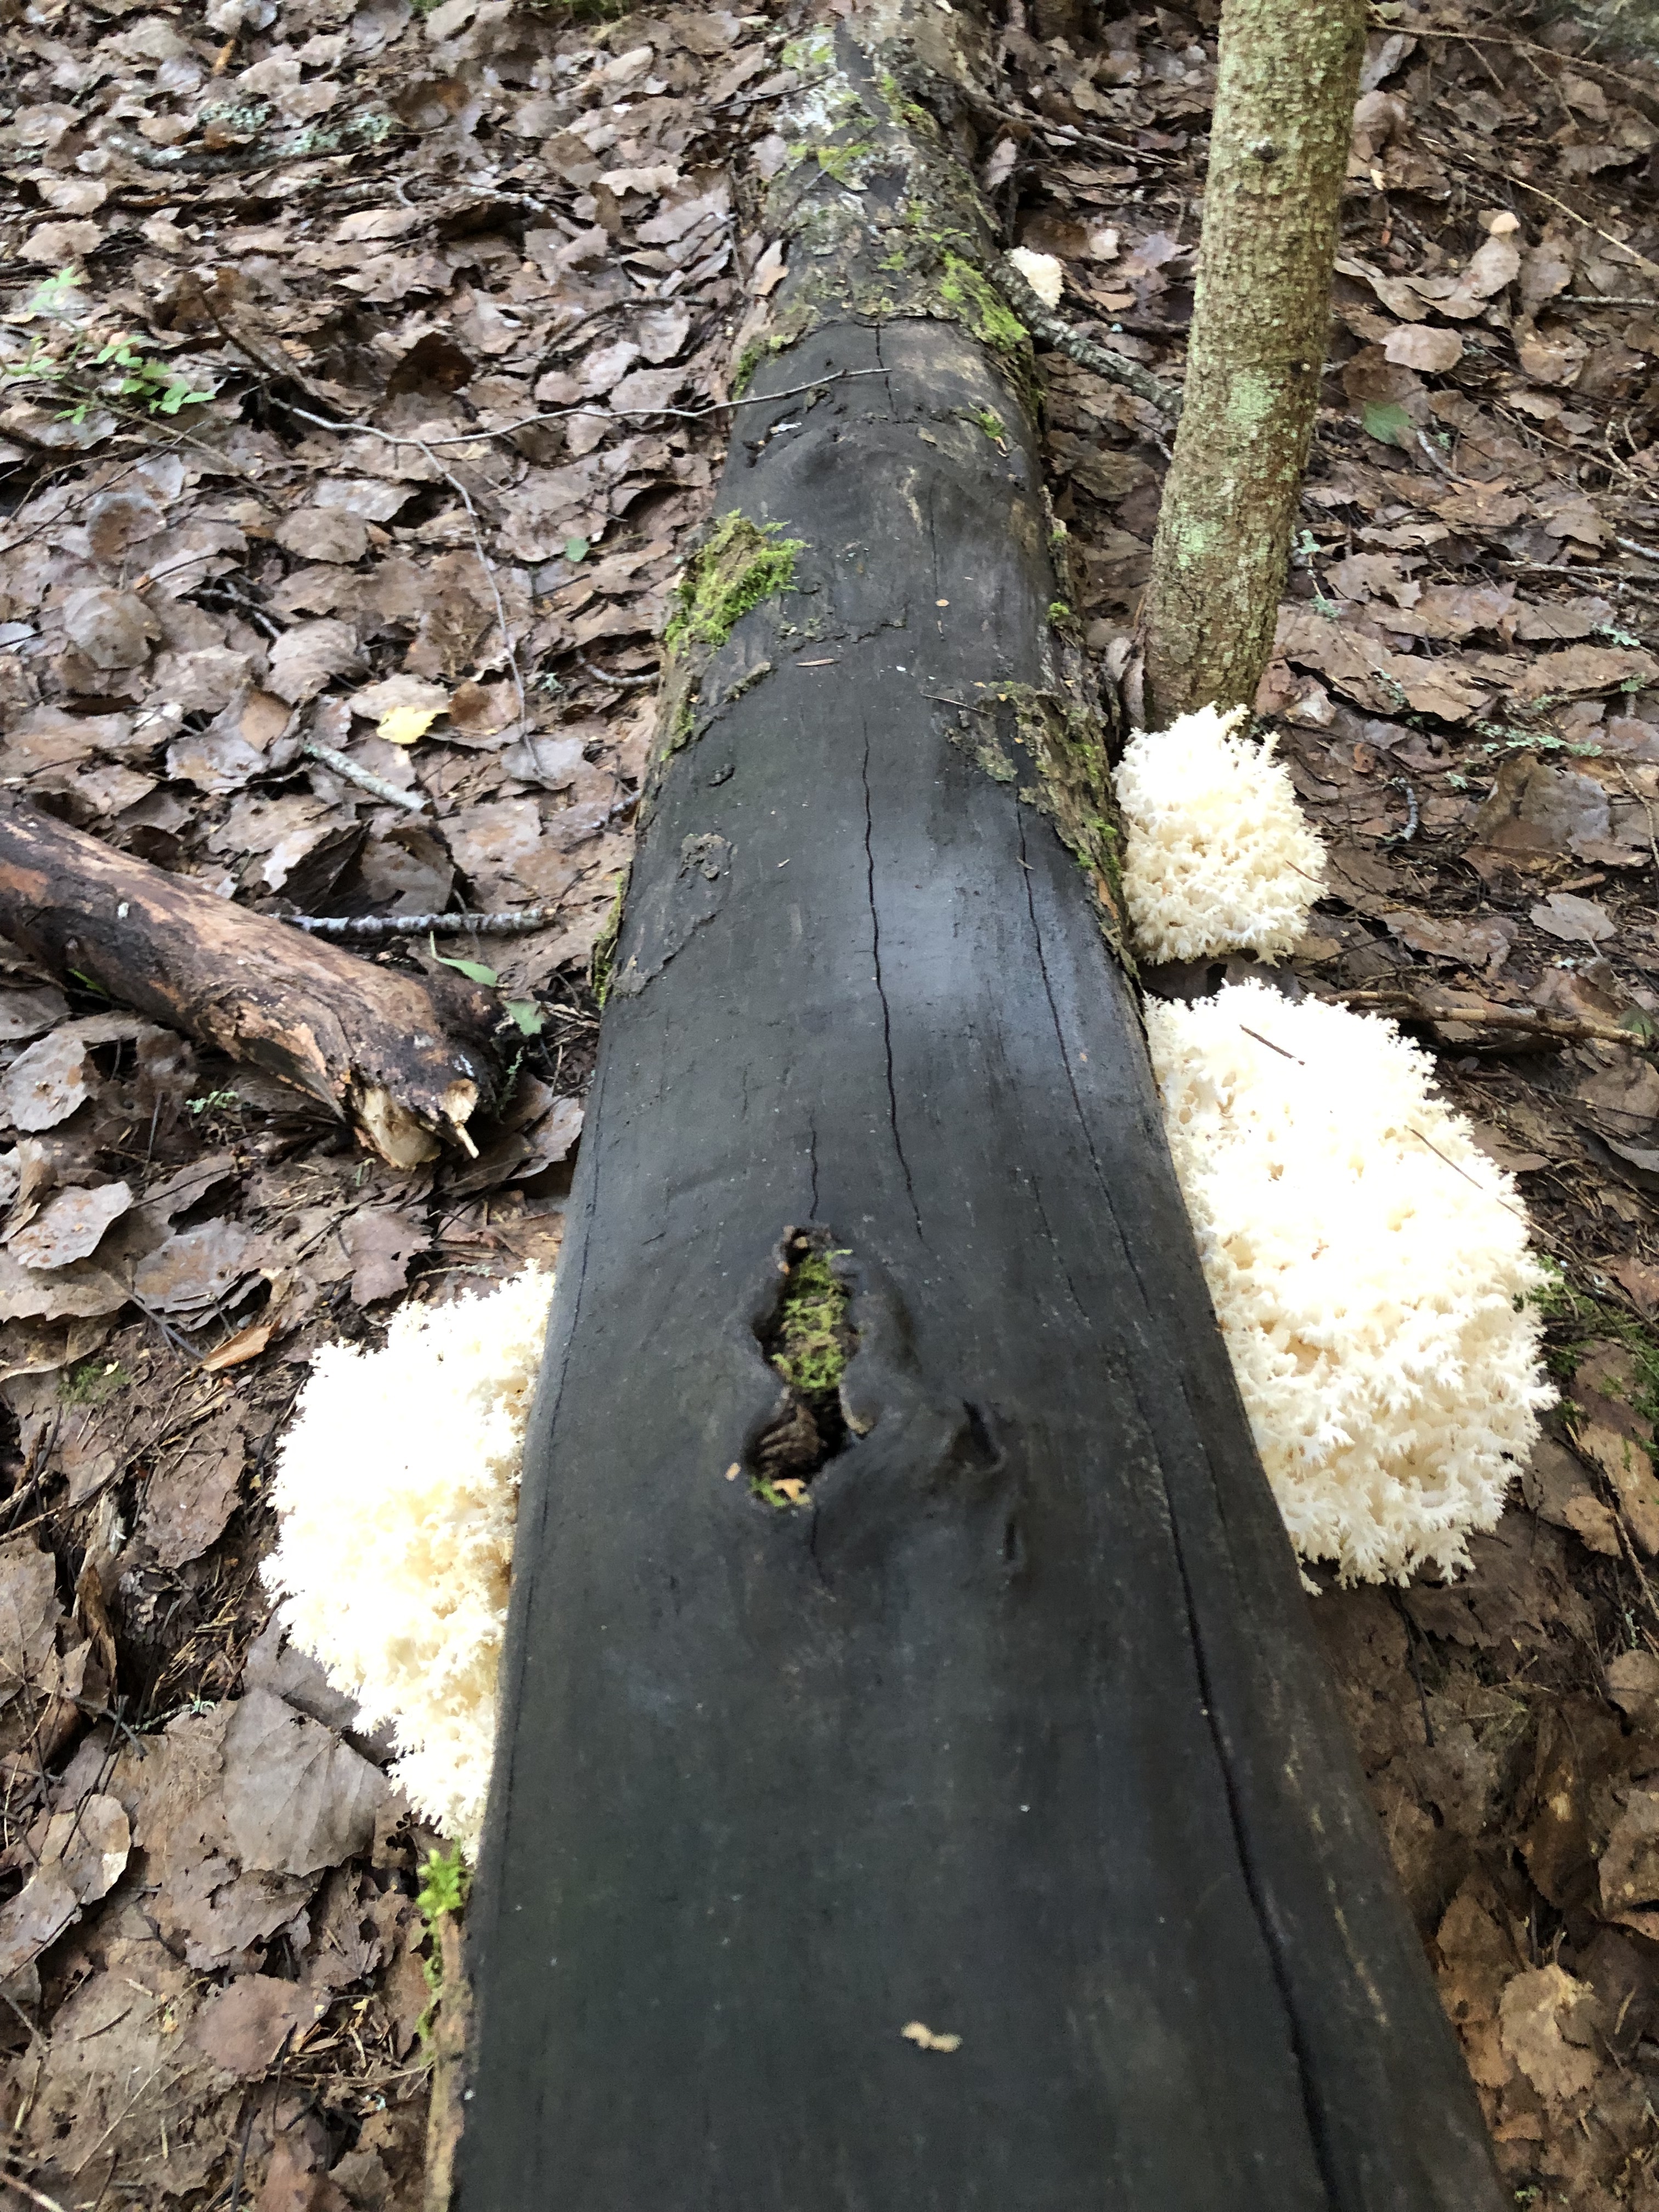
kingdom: Fungi
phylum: Basidiomycota
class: Agaricomycetes
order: Russulales
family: Hericiaceae
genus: Hericium
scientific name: Hericium coralloides
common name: Coral tooth
